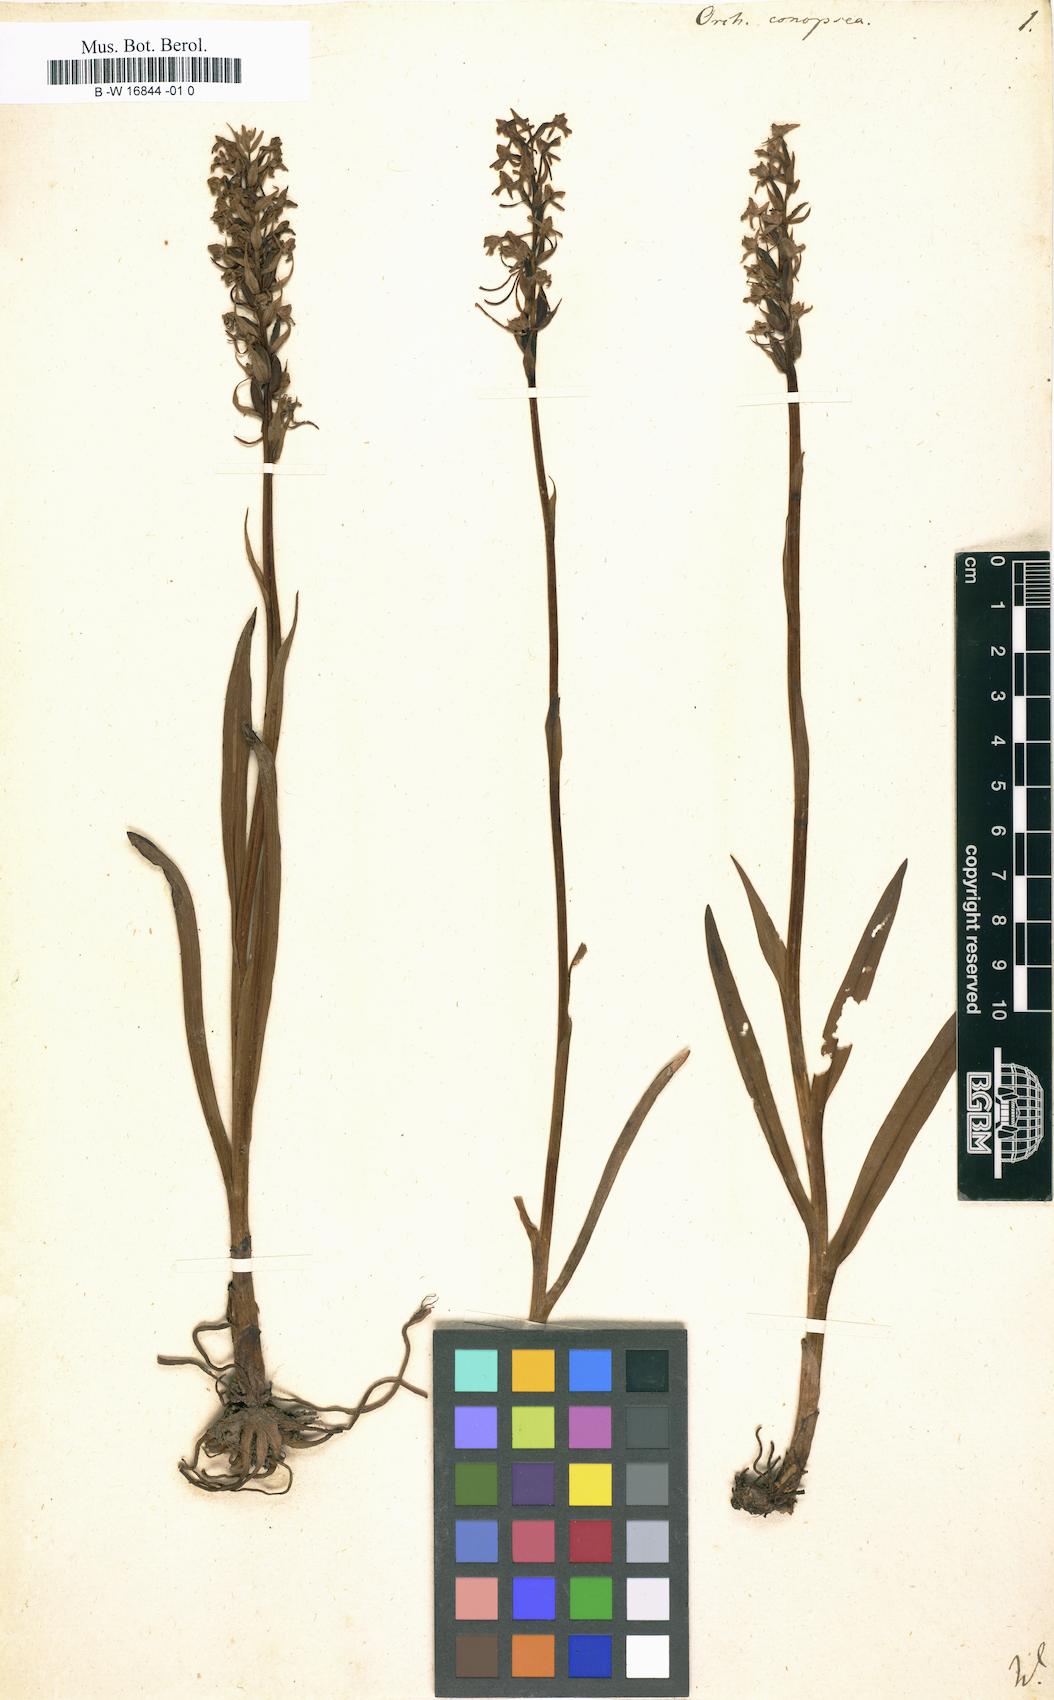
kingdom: Plantae
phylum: Tracheophyta
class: Liliopsida
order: Asparagales
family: Orchidaceae
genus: Gymnadenia
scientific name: Gymnadenia conopsea
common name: Fragrant orchid
